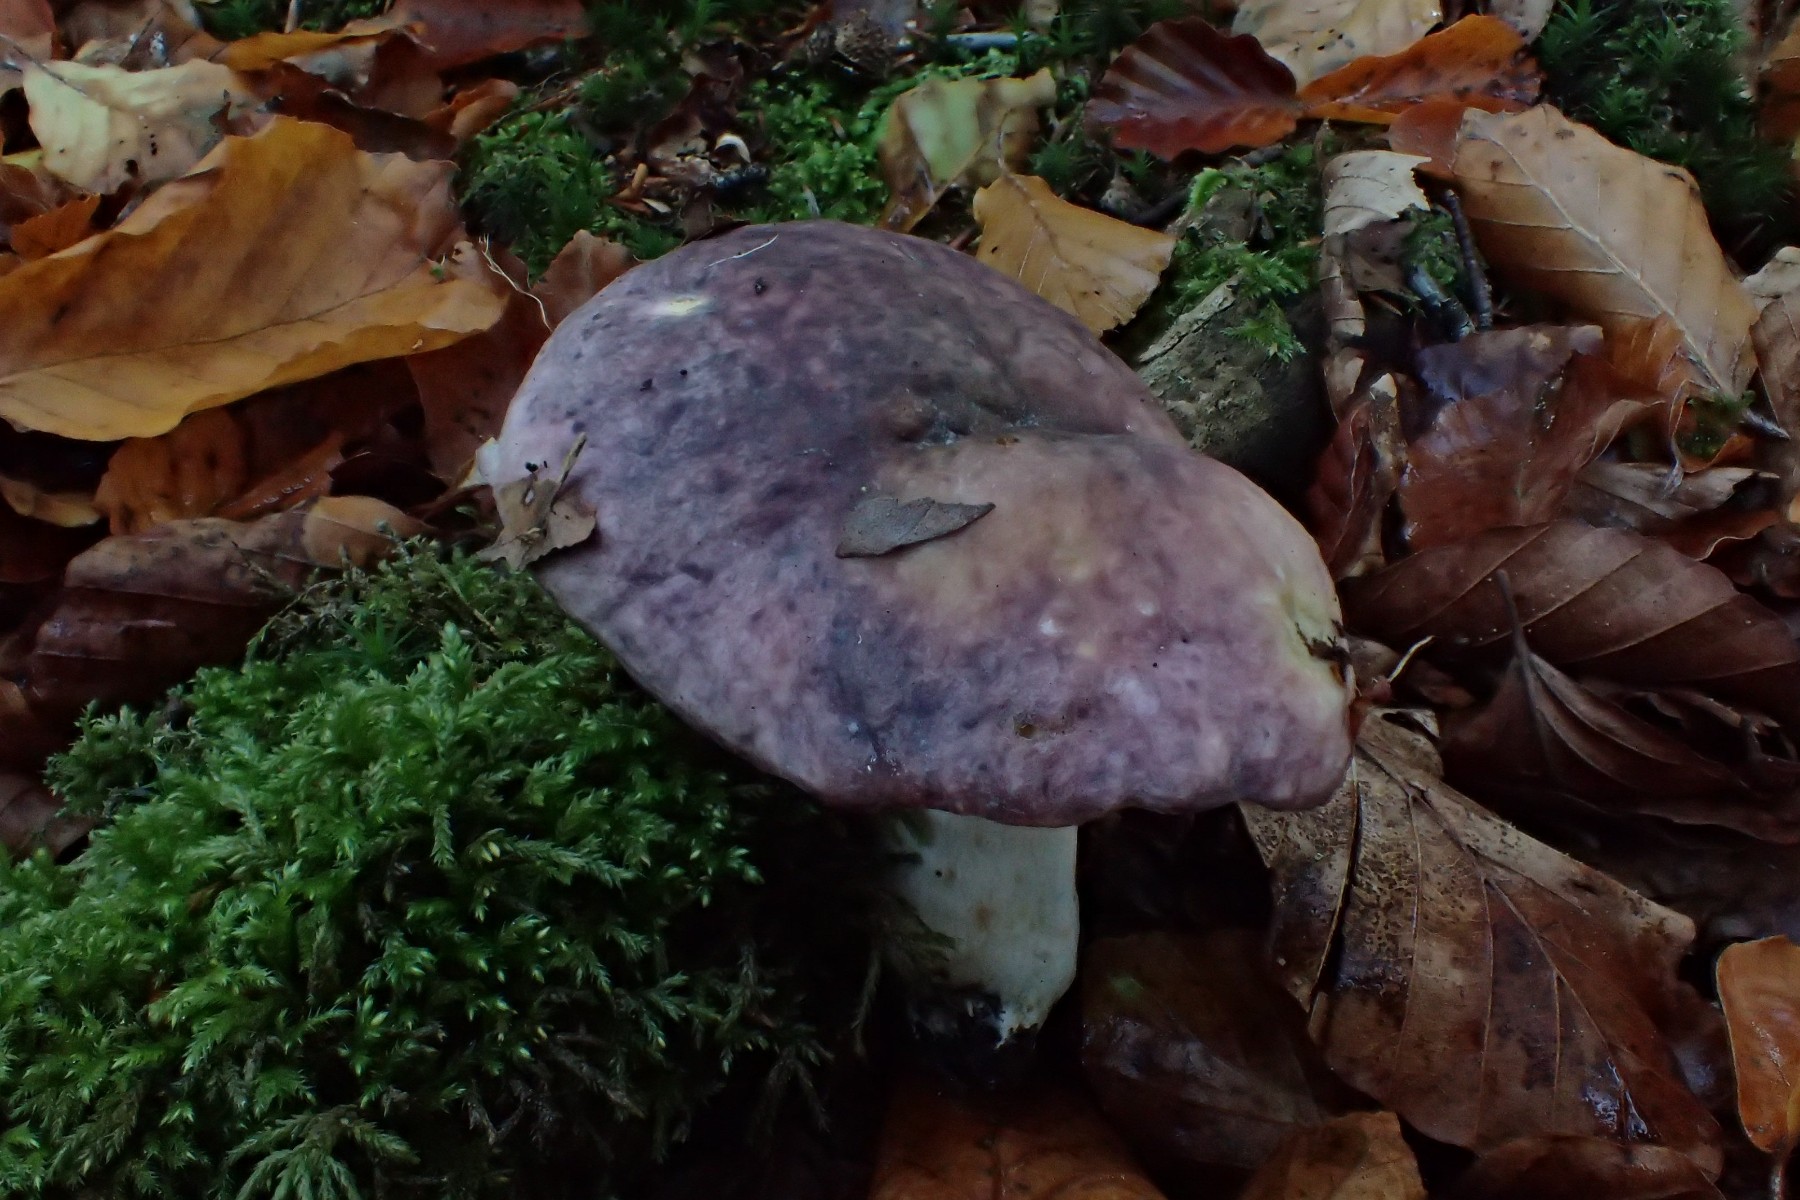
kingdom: Fungi
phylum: Basidiomycota
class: Agaricomycetes
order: Russulales
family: Russulaceae
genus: Russula
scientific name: Russula cyanoxantha
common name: broget skørhat
